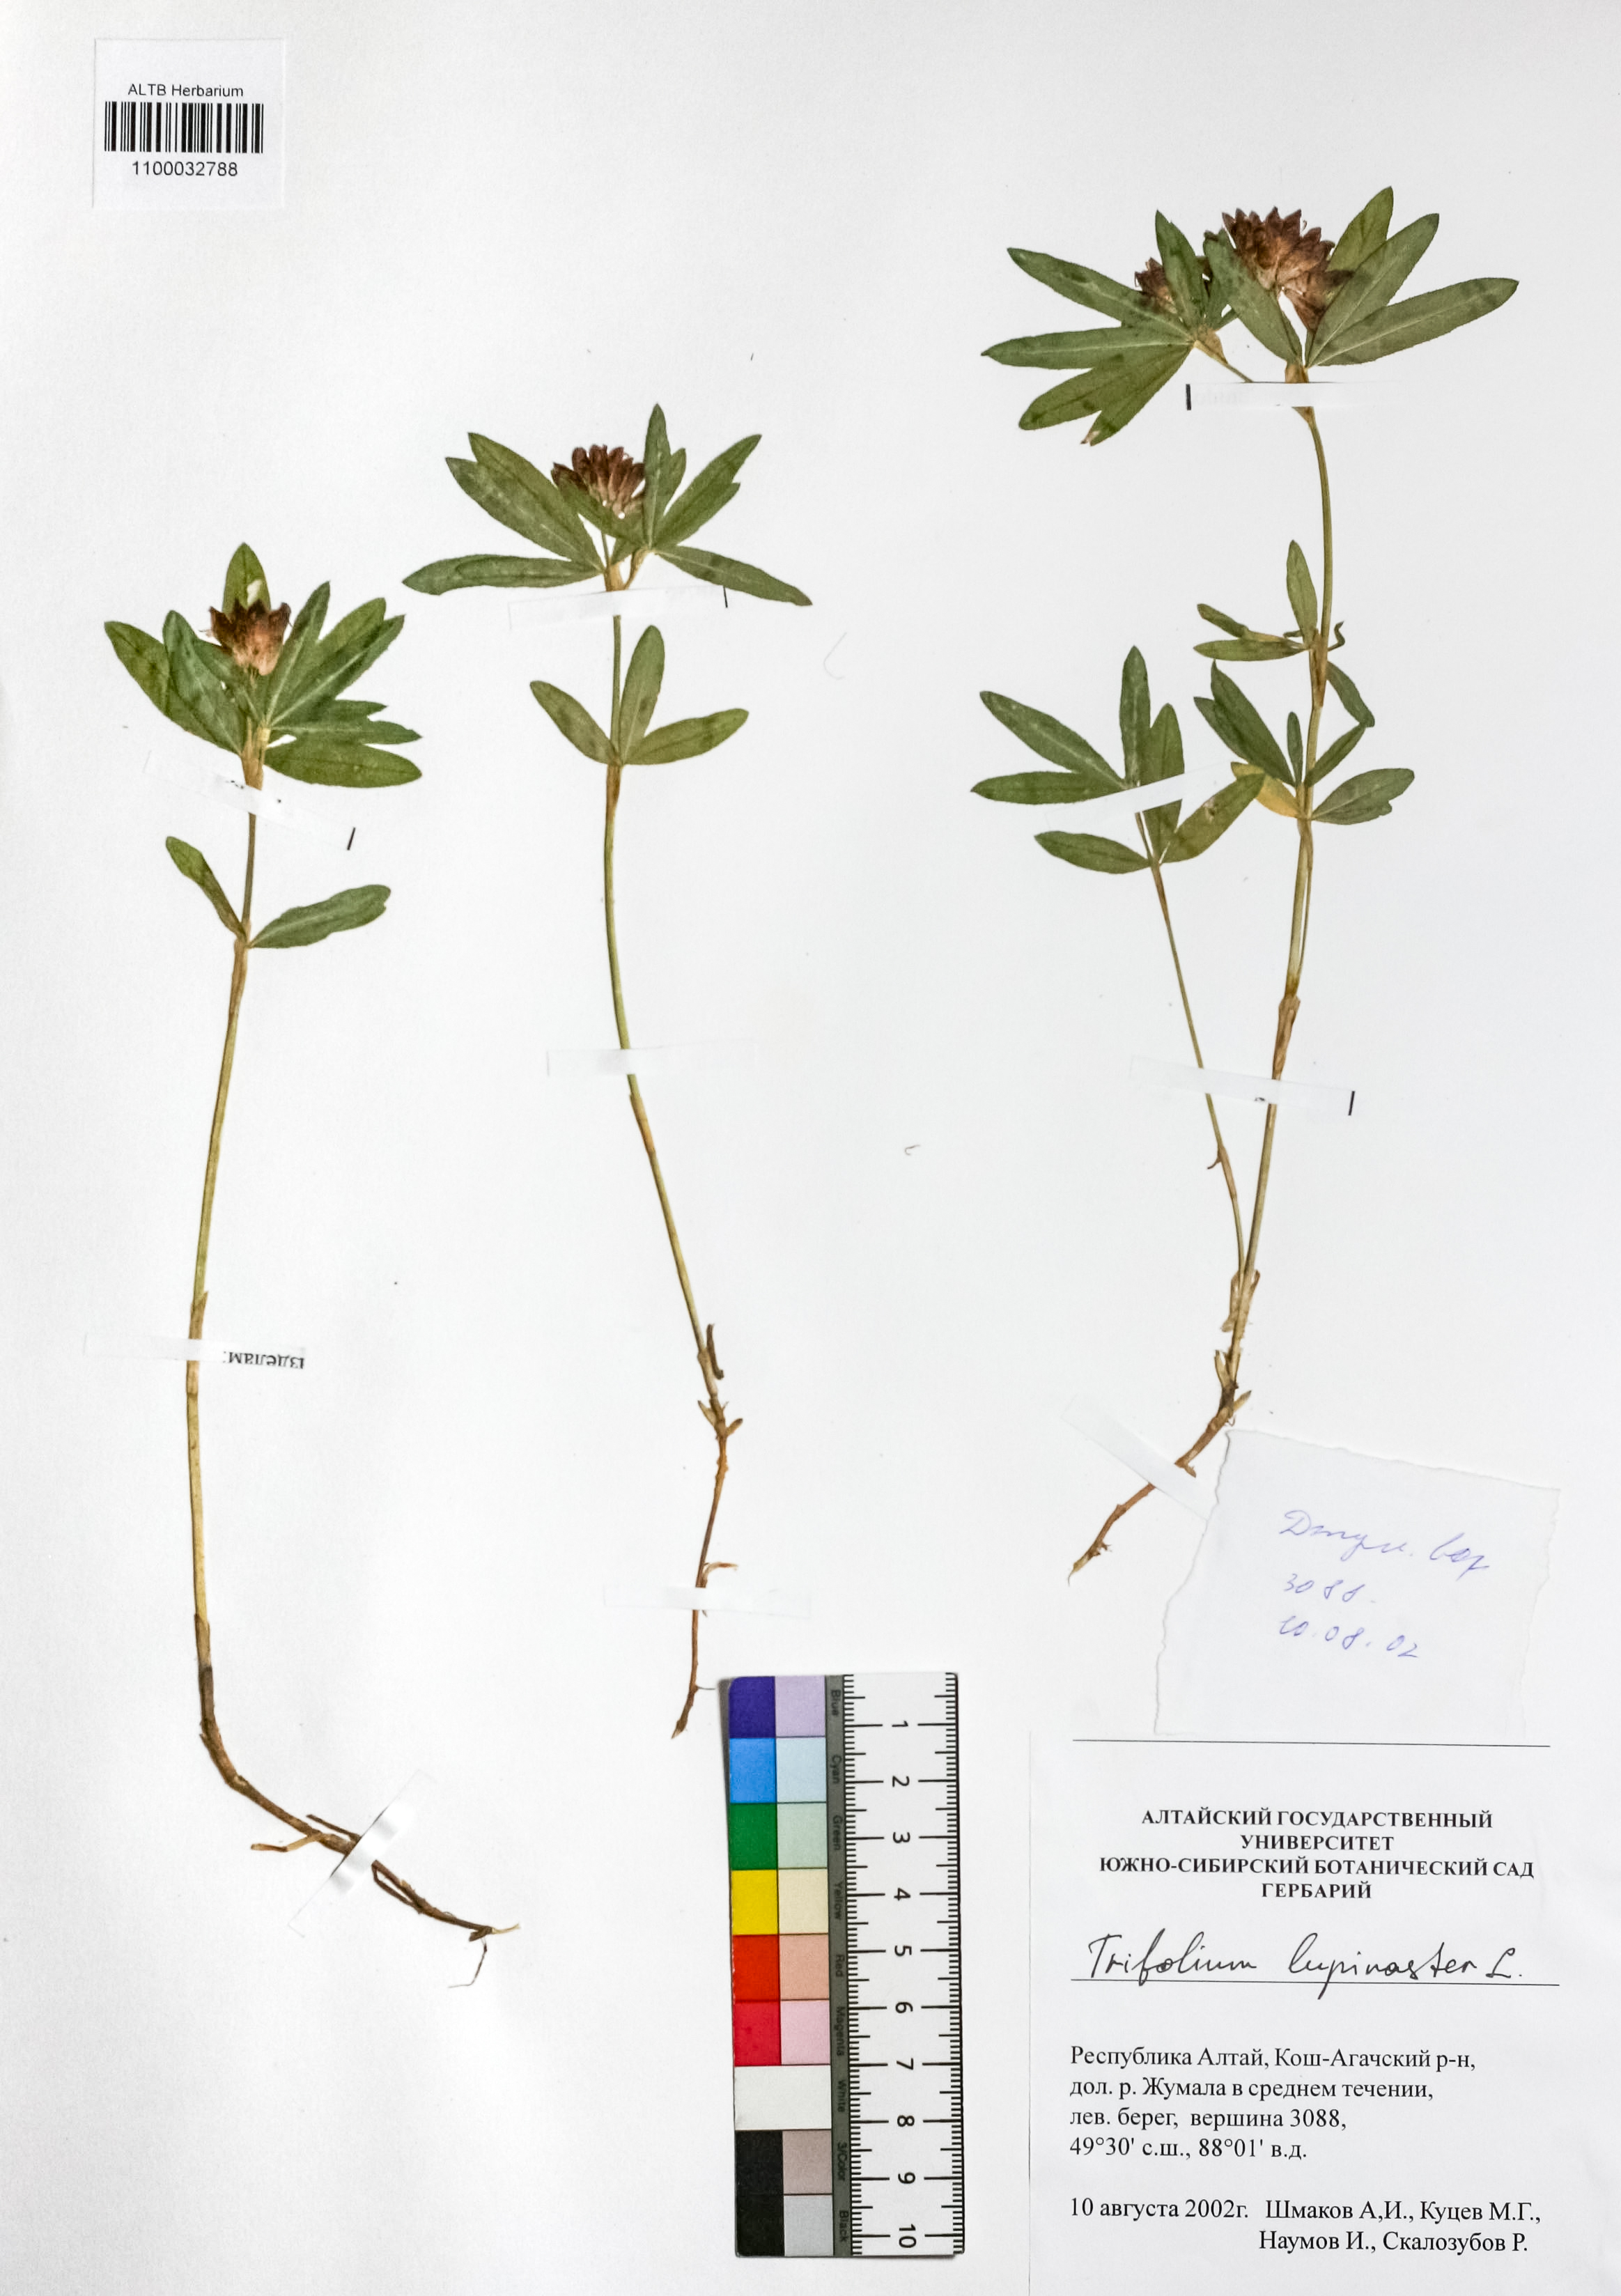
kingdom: Plantae
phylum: Tracheophyta
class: Magnoliopsida
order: Fabales
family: Fabaceae
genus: Trifolium
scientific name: Trifolium lupinaster
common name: Lupine clover
